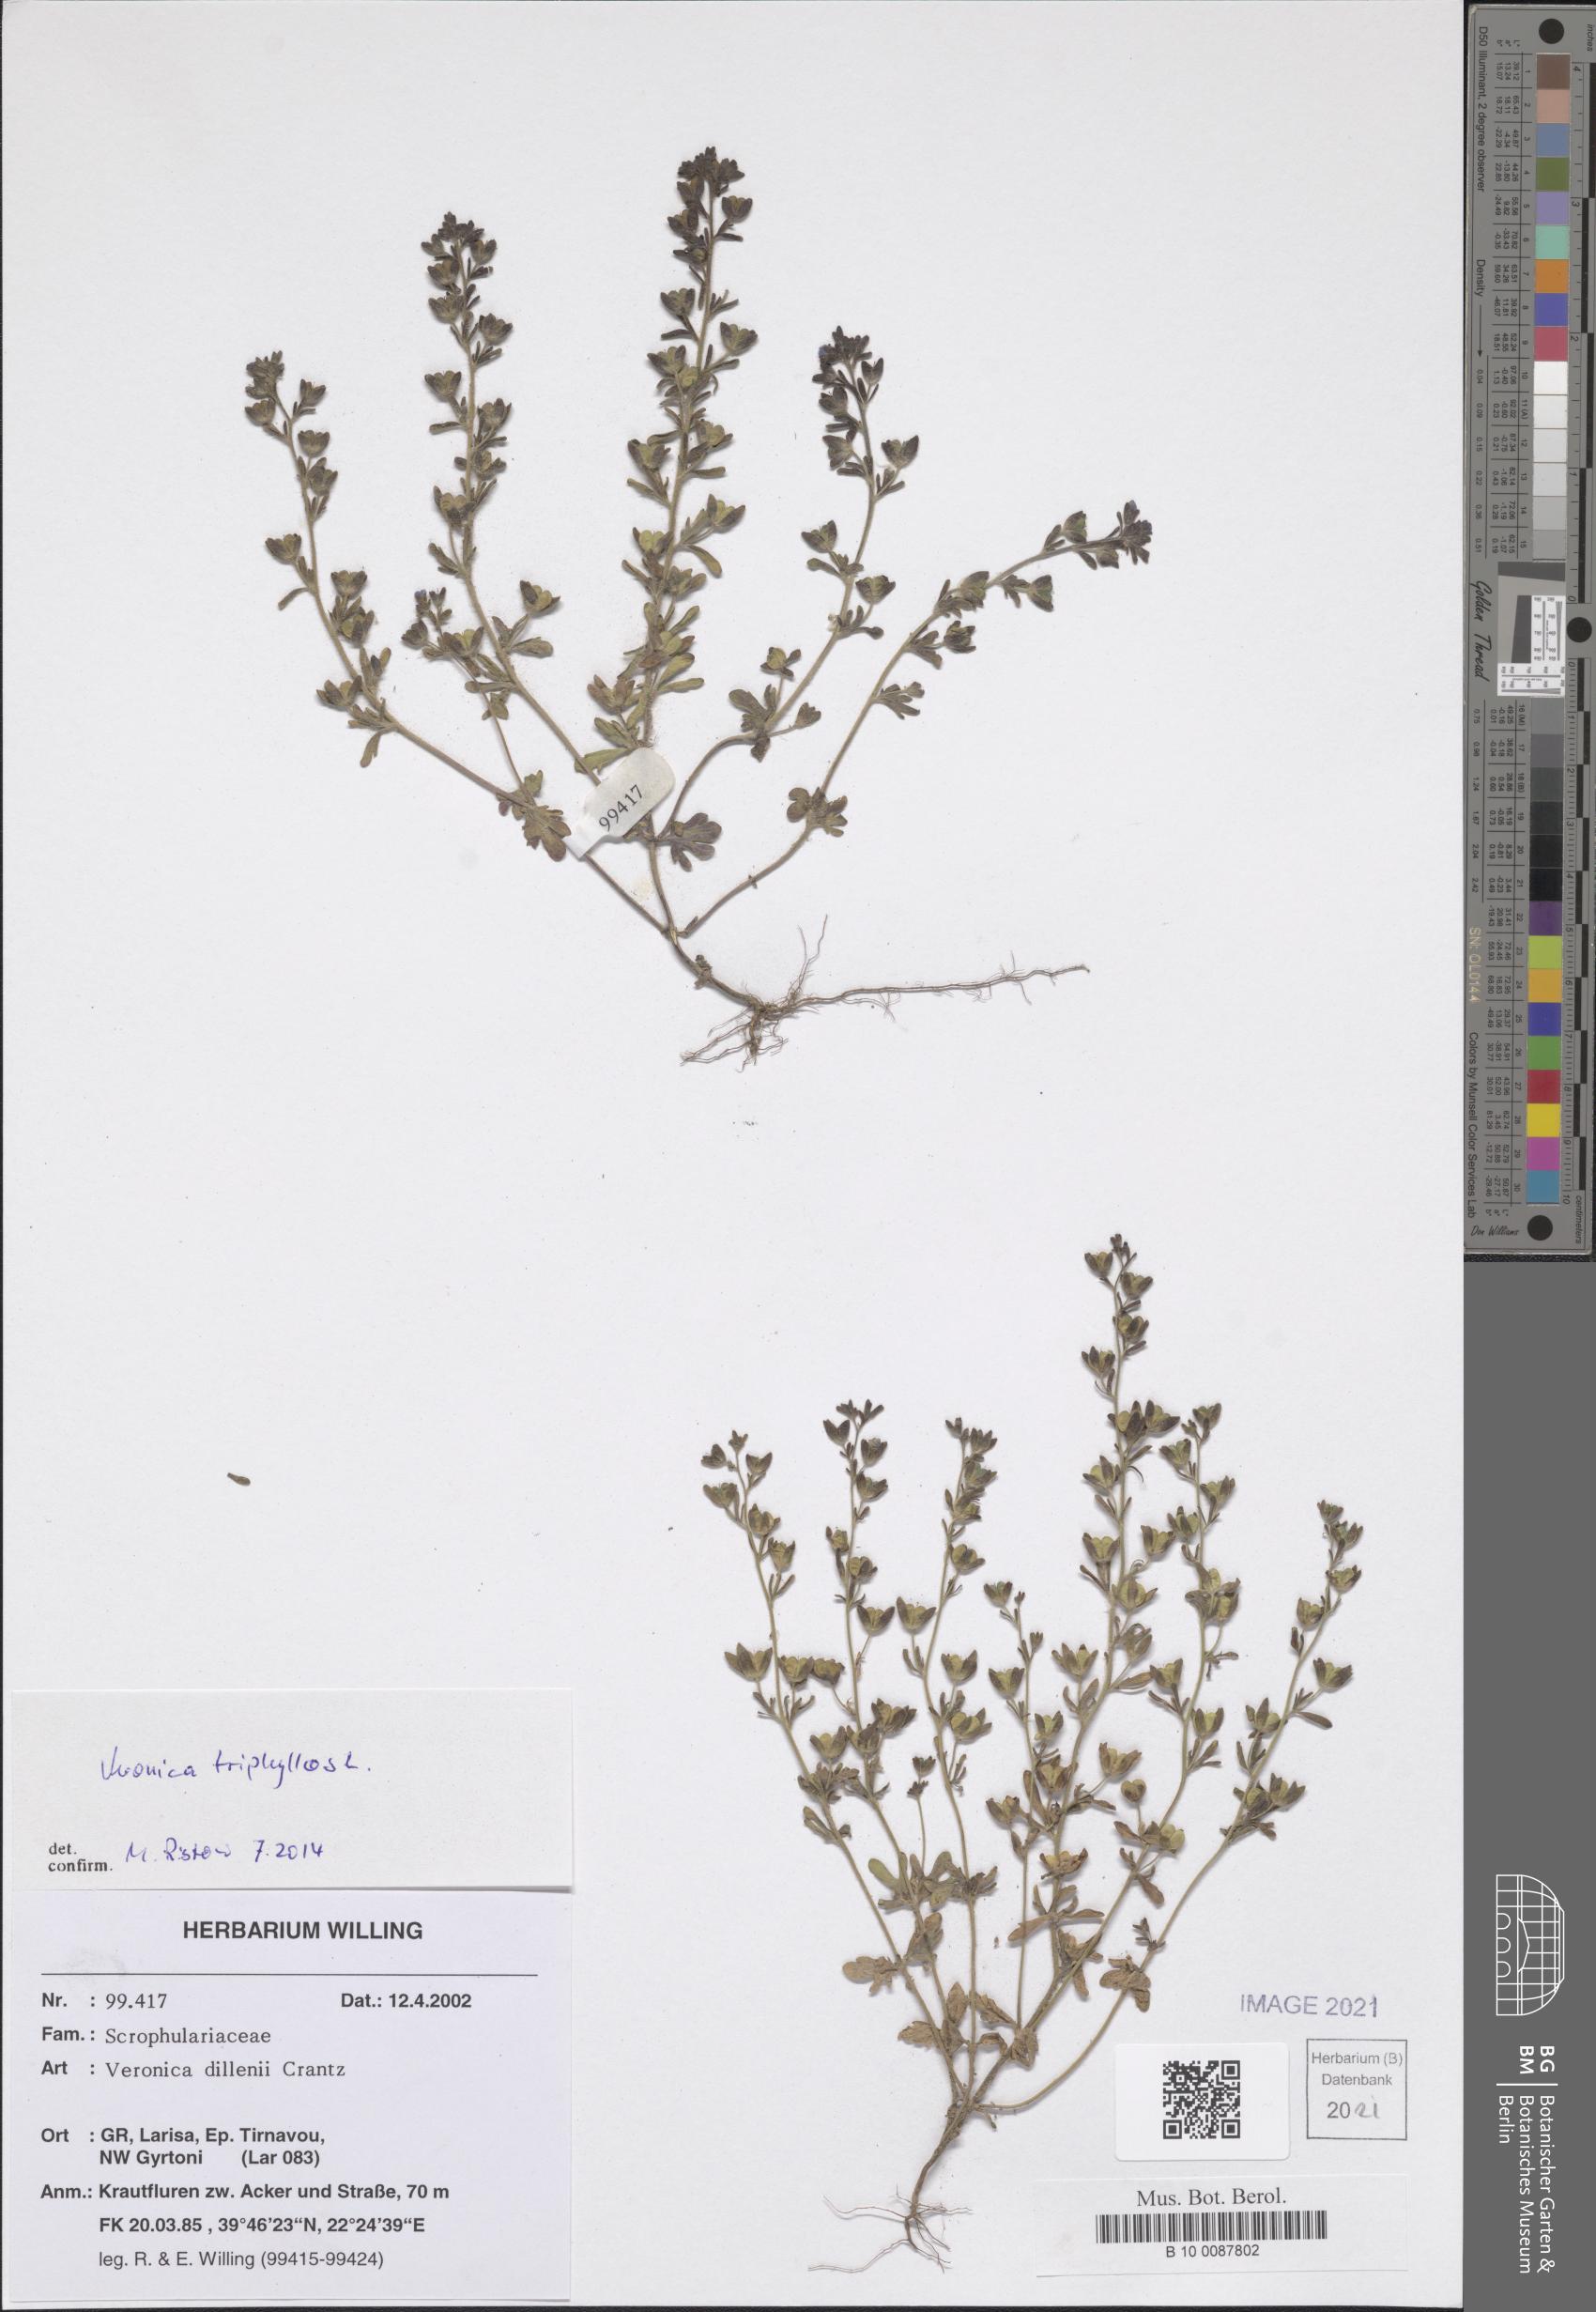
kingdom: Plantae
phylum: Tracheophyta
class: Magnoliopsida
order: Lamiales
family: Plantaginaceae
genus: Veronica
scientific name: Veronica triphyllos
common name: Fingered speedwell
